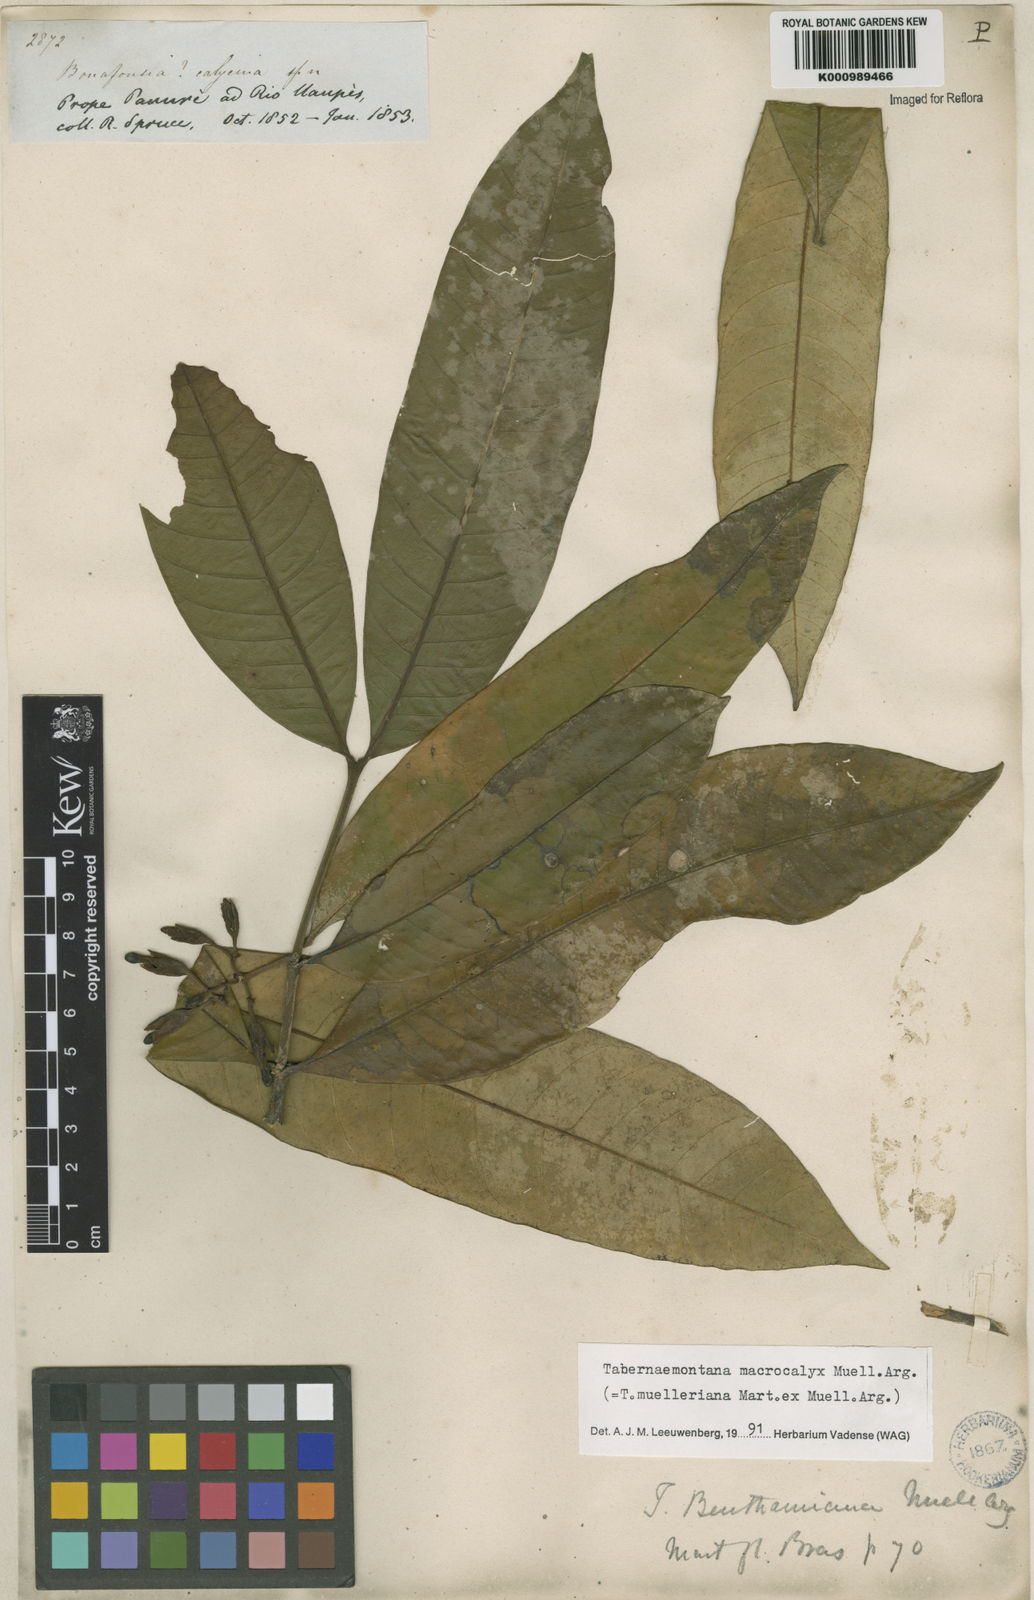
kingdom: Plantae
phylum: Tracheophyta
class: Magnoliopsida
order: Gentianales
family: Apocynaceae
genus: Tabernaemontana
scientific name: Tabernaemontana
